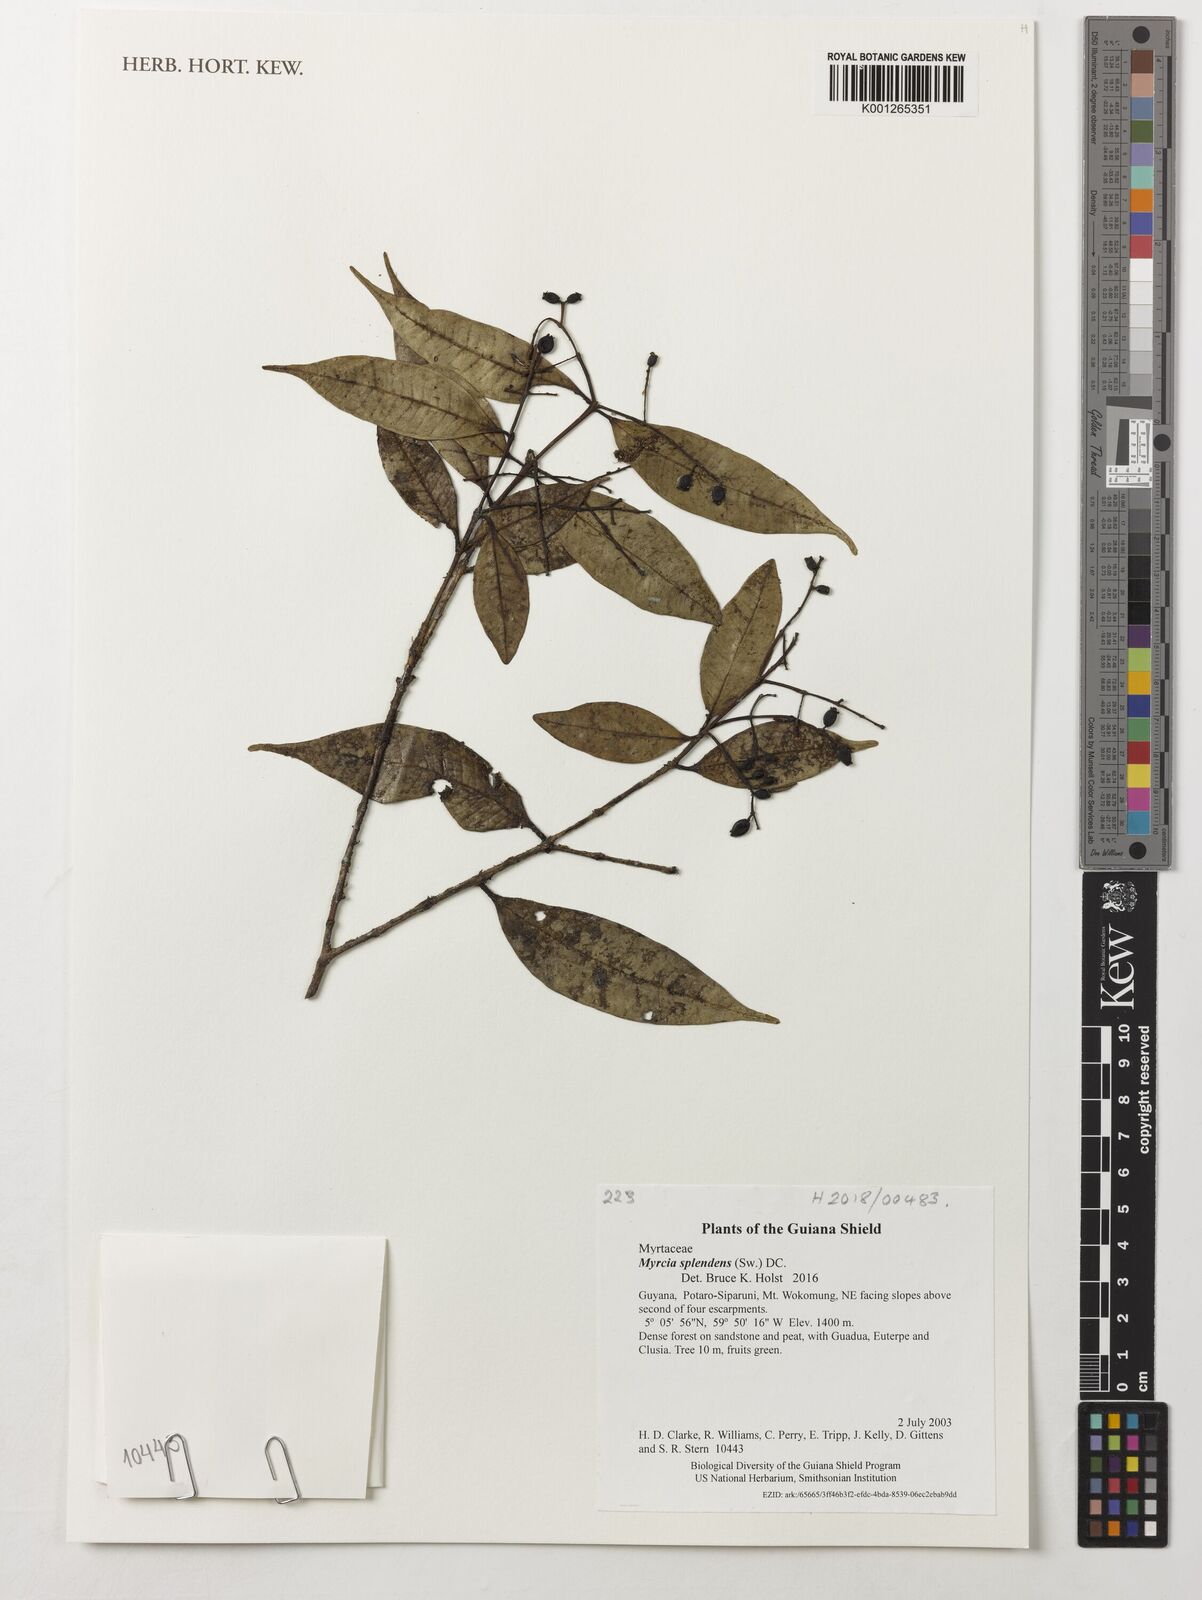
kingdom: Plantae
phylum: Tracheophyta
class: Magnoliopsida
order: Myrtales
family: Myrtaceae
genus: Myrcia
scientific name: Myrcia splendens
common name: Surinam cherry
